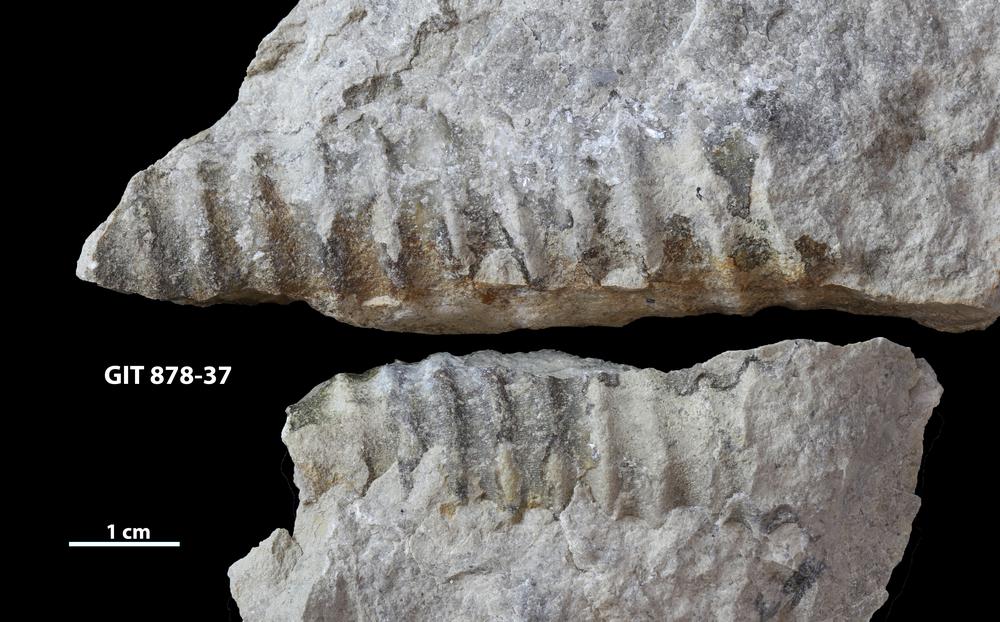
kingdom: Animalia
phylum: Mollusca
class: Cephalopoda
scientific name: Cephalopoda
